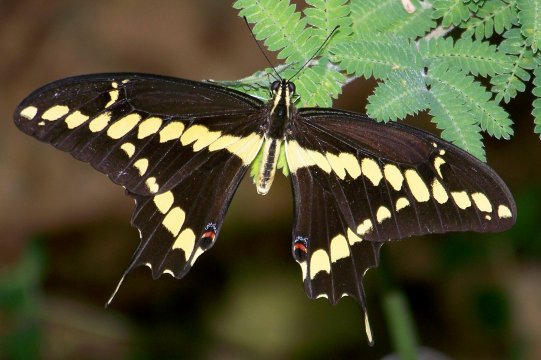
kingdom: Animalia
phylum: Arthropoda
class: Insecta
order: Lepidoptera
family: Papilionidae
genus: Papilio
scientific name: Papilio rumiko
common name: Western Giant Swallowtail
